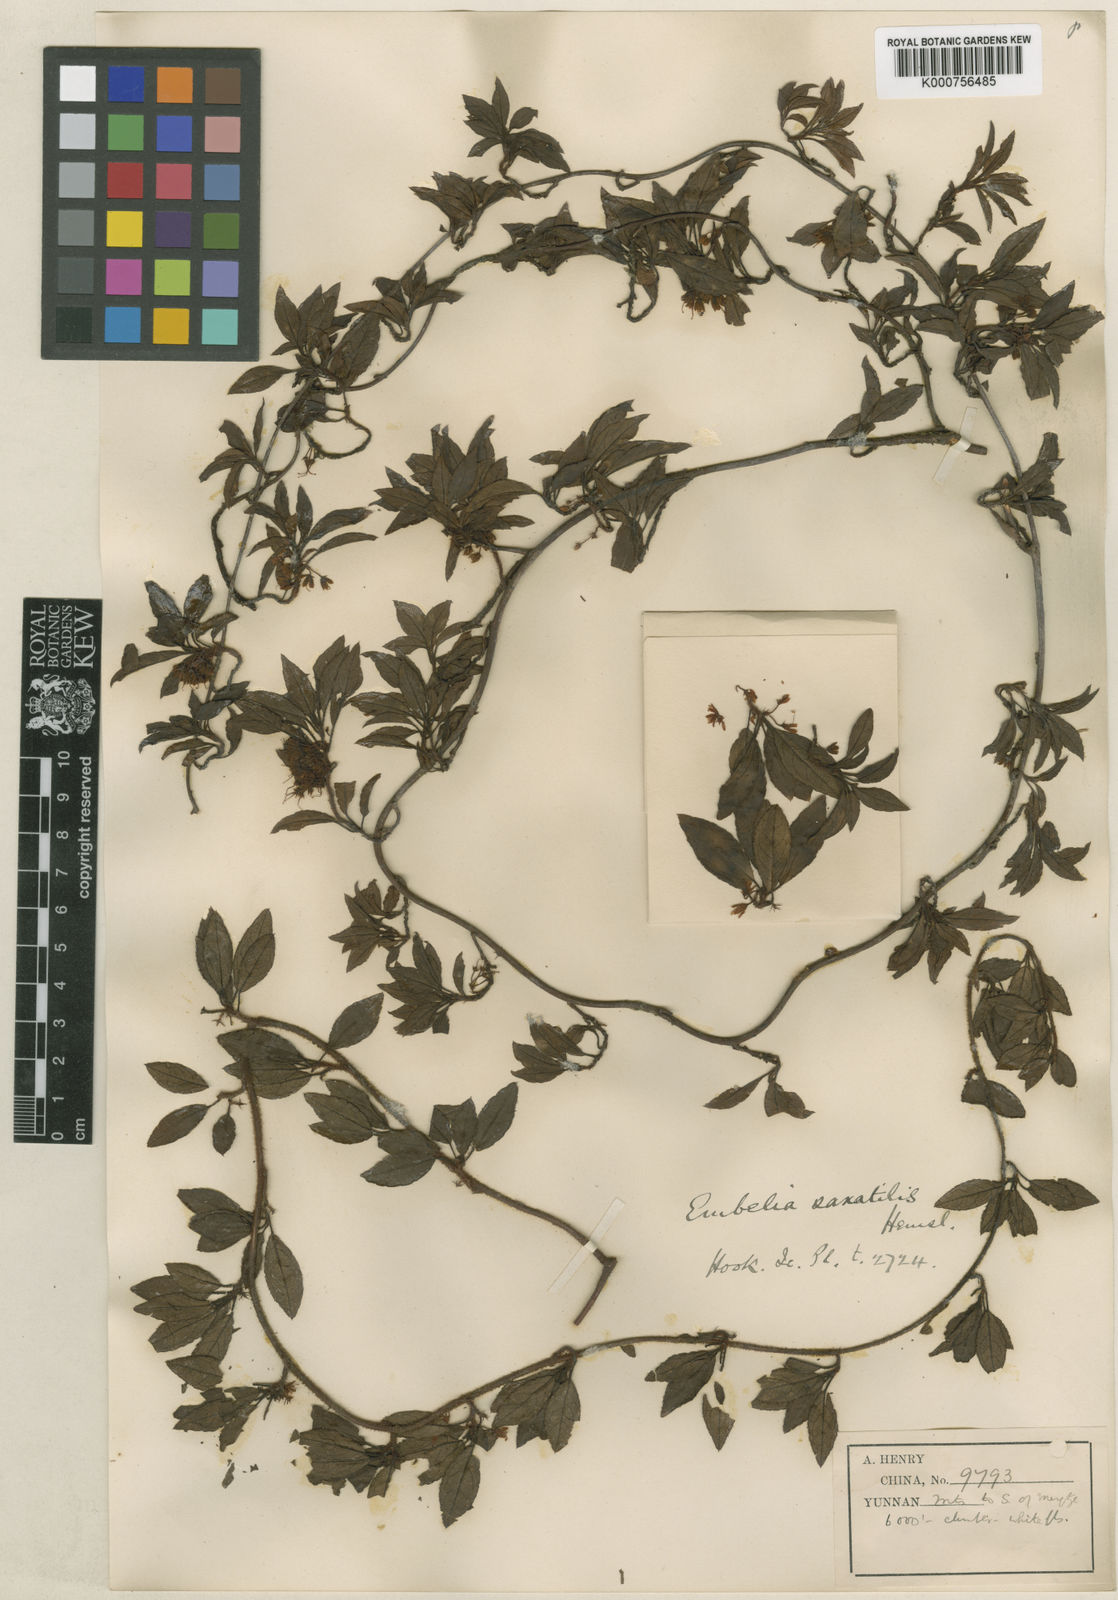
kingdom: Plantae
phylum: Tracheophyta
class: Magnoliopsida
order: Ericales
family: Primulaceae
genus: Embelia
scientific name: Embelia procumbens
